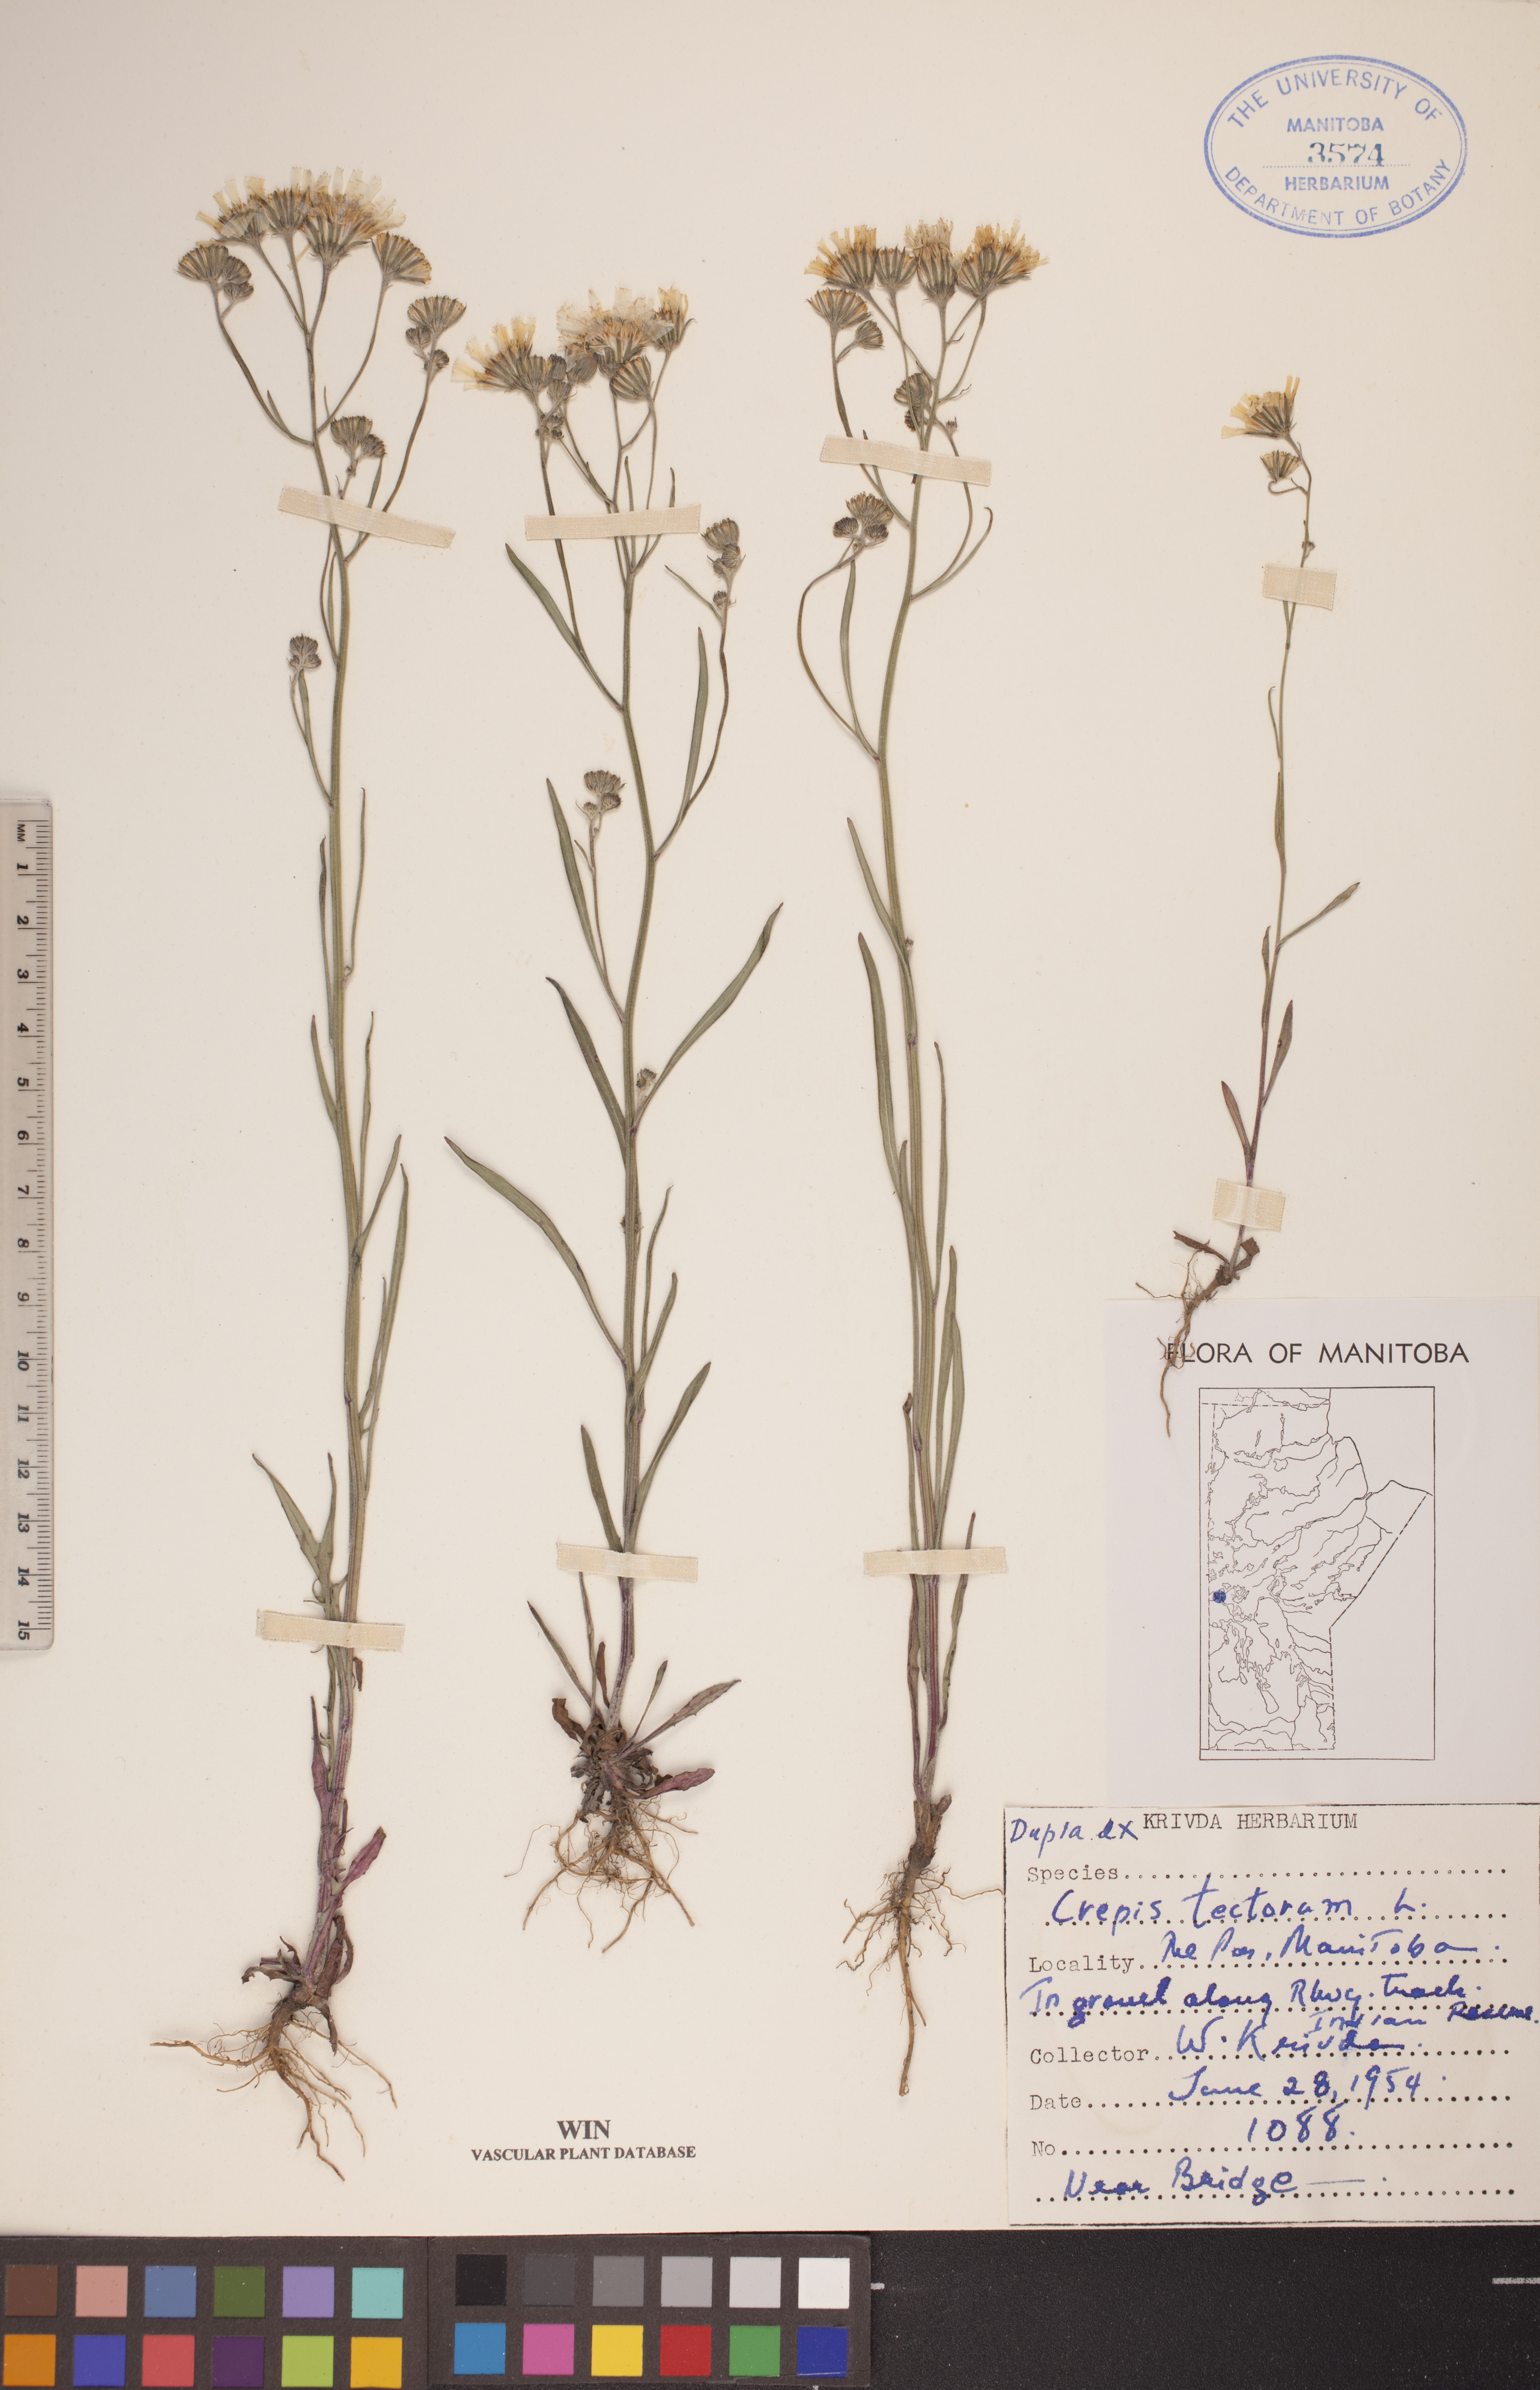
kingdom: Plantae
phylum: Tracheophyta
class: Magnoliopsida
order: Asterales
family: Asteraceae
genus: Crepis
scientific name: Crepis tectorum
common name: Narrow-leaved hawk's-beard
